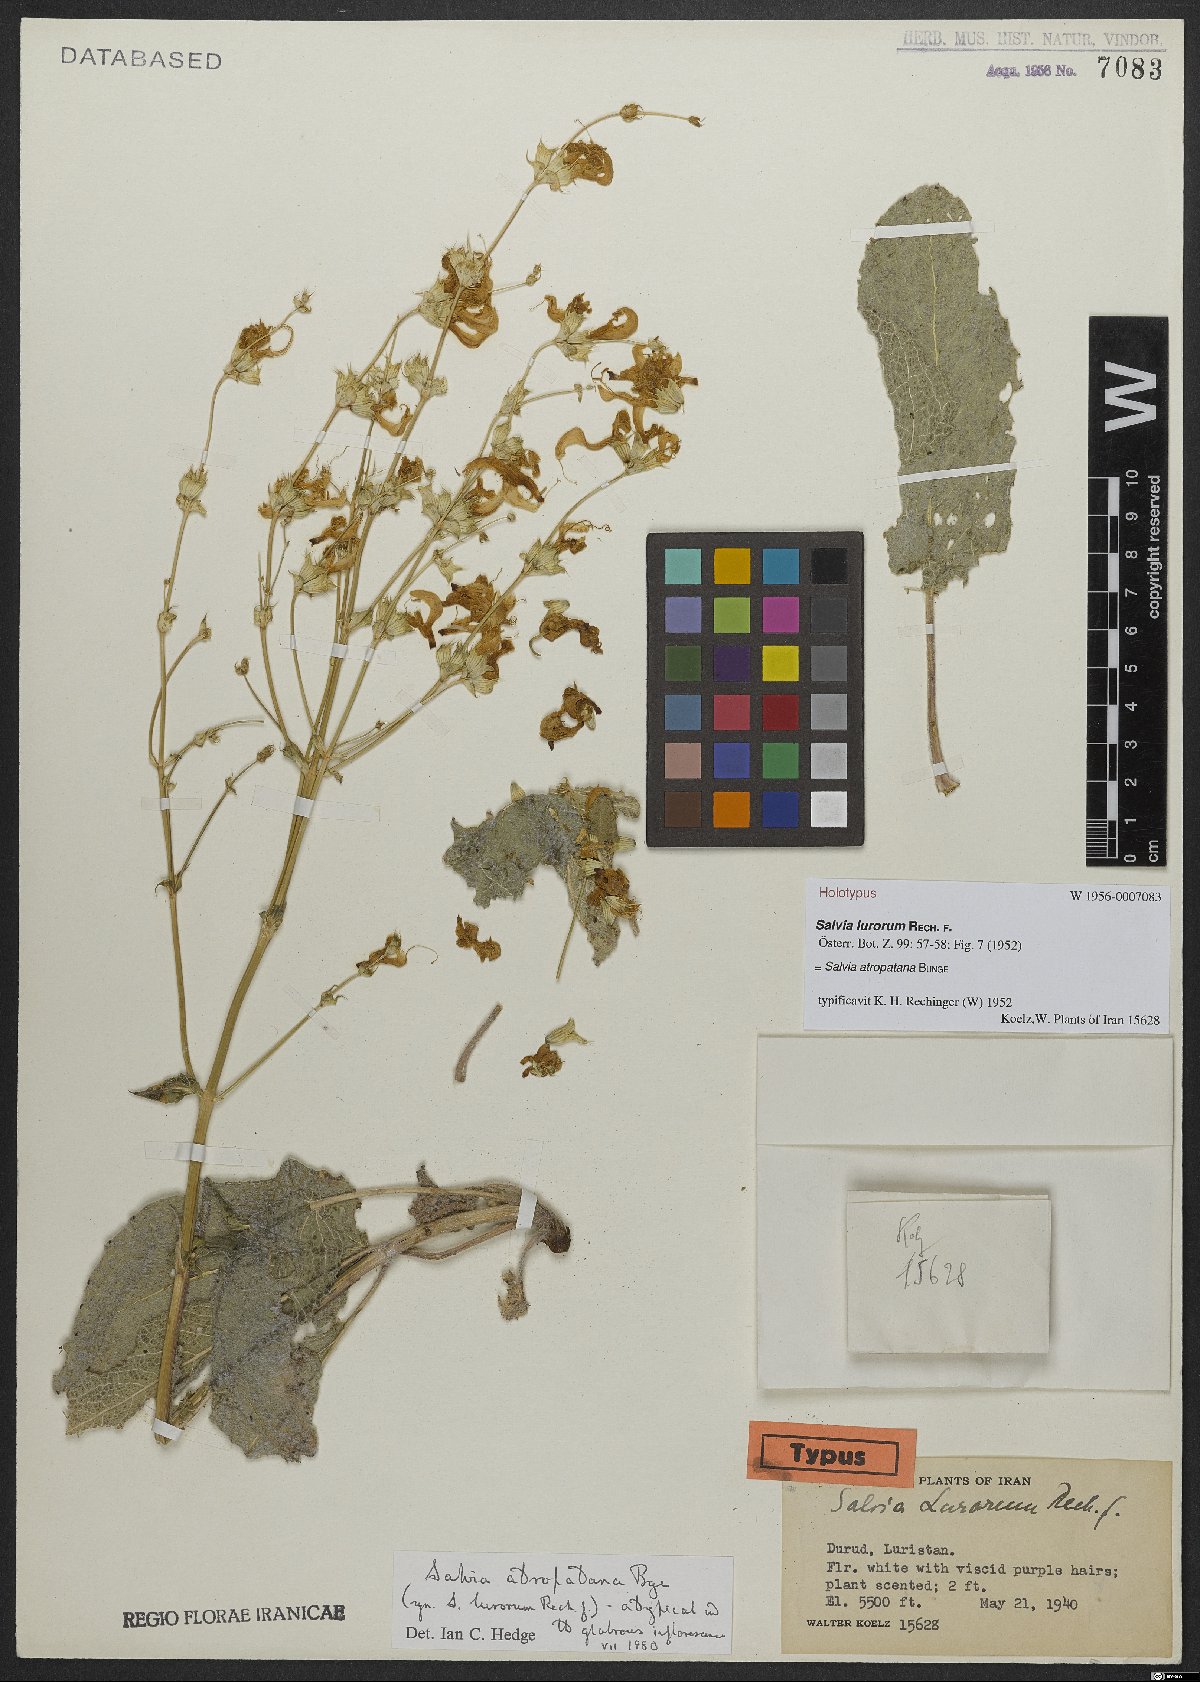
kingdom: Plantae
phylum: Tracheophyta
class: Magnoliopsida
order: Lamiales
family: Lamiaceae
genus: Salvia
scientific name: Salvia atropatana
